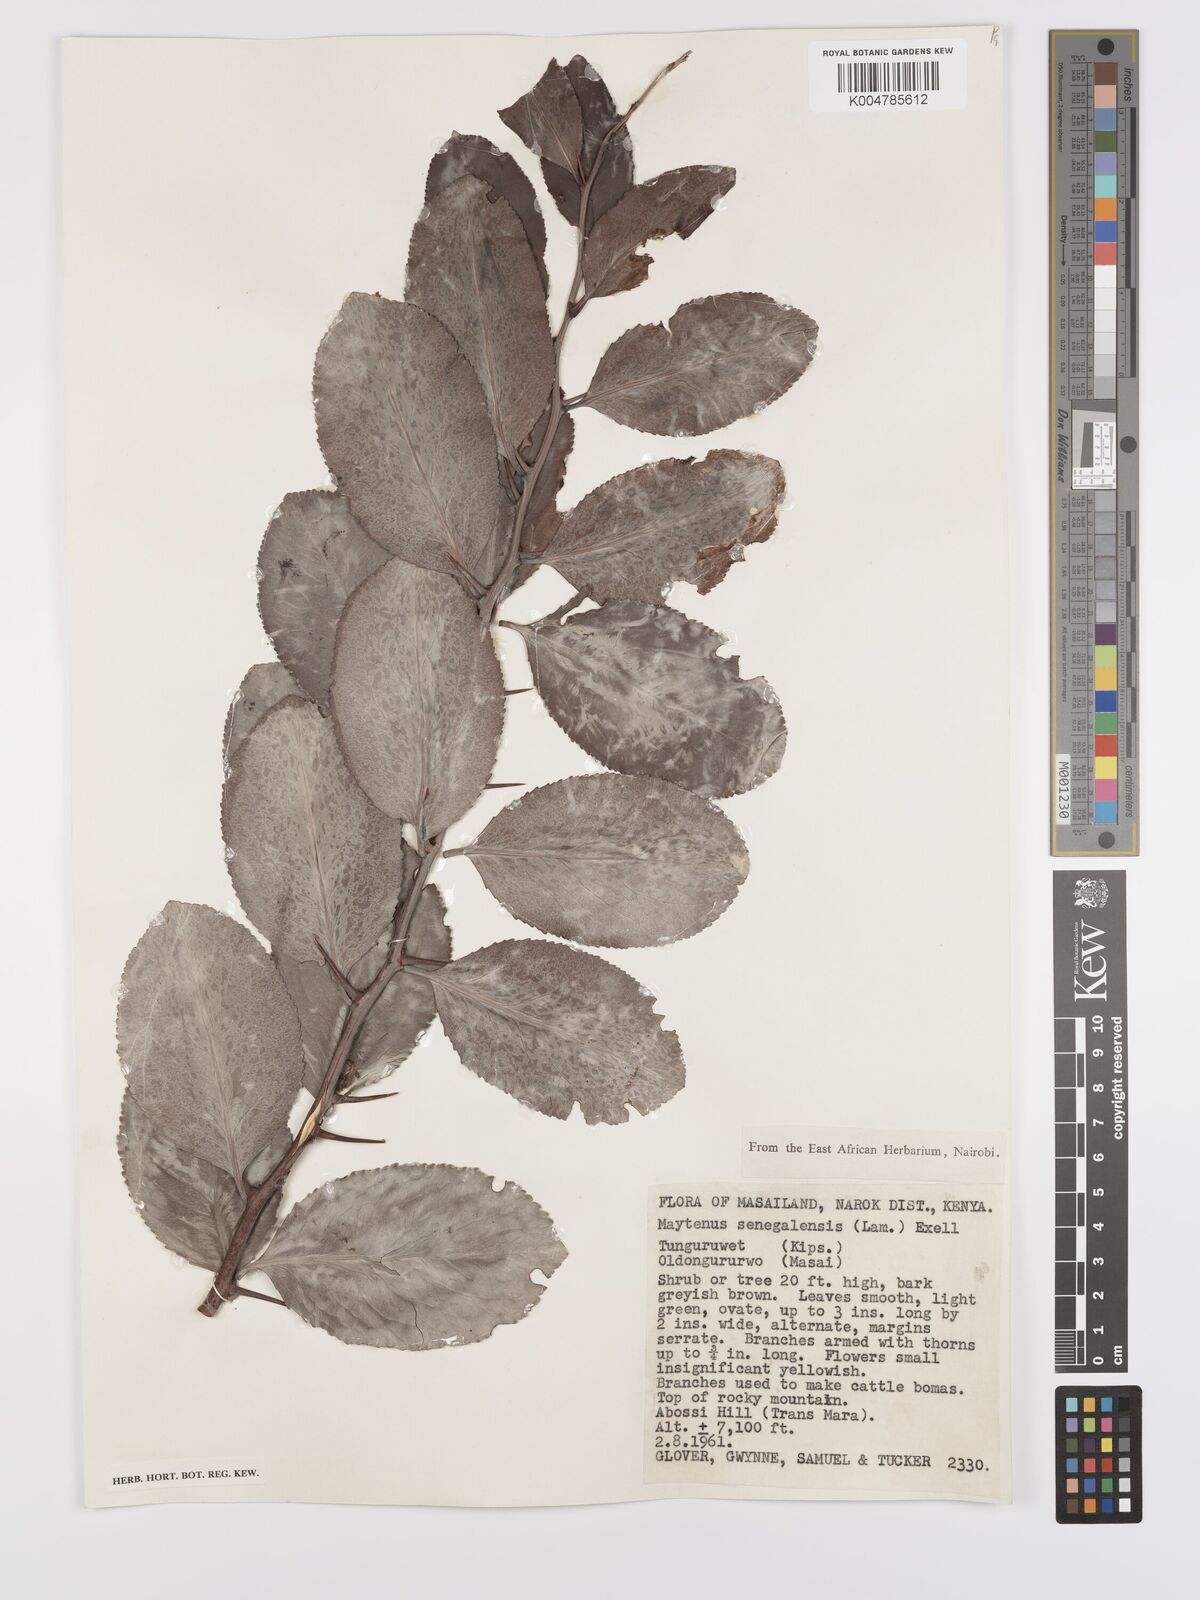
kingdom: Plantae
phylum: Tracheophyta
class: Magnoliopsida
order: Celastrales
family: Celastraceae
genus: Gymnosporia
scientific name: Gymnosporia senegalensis
